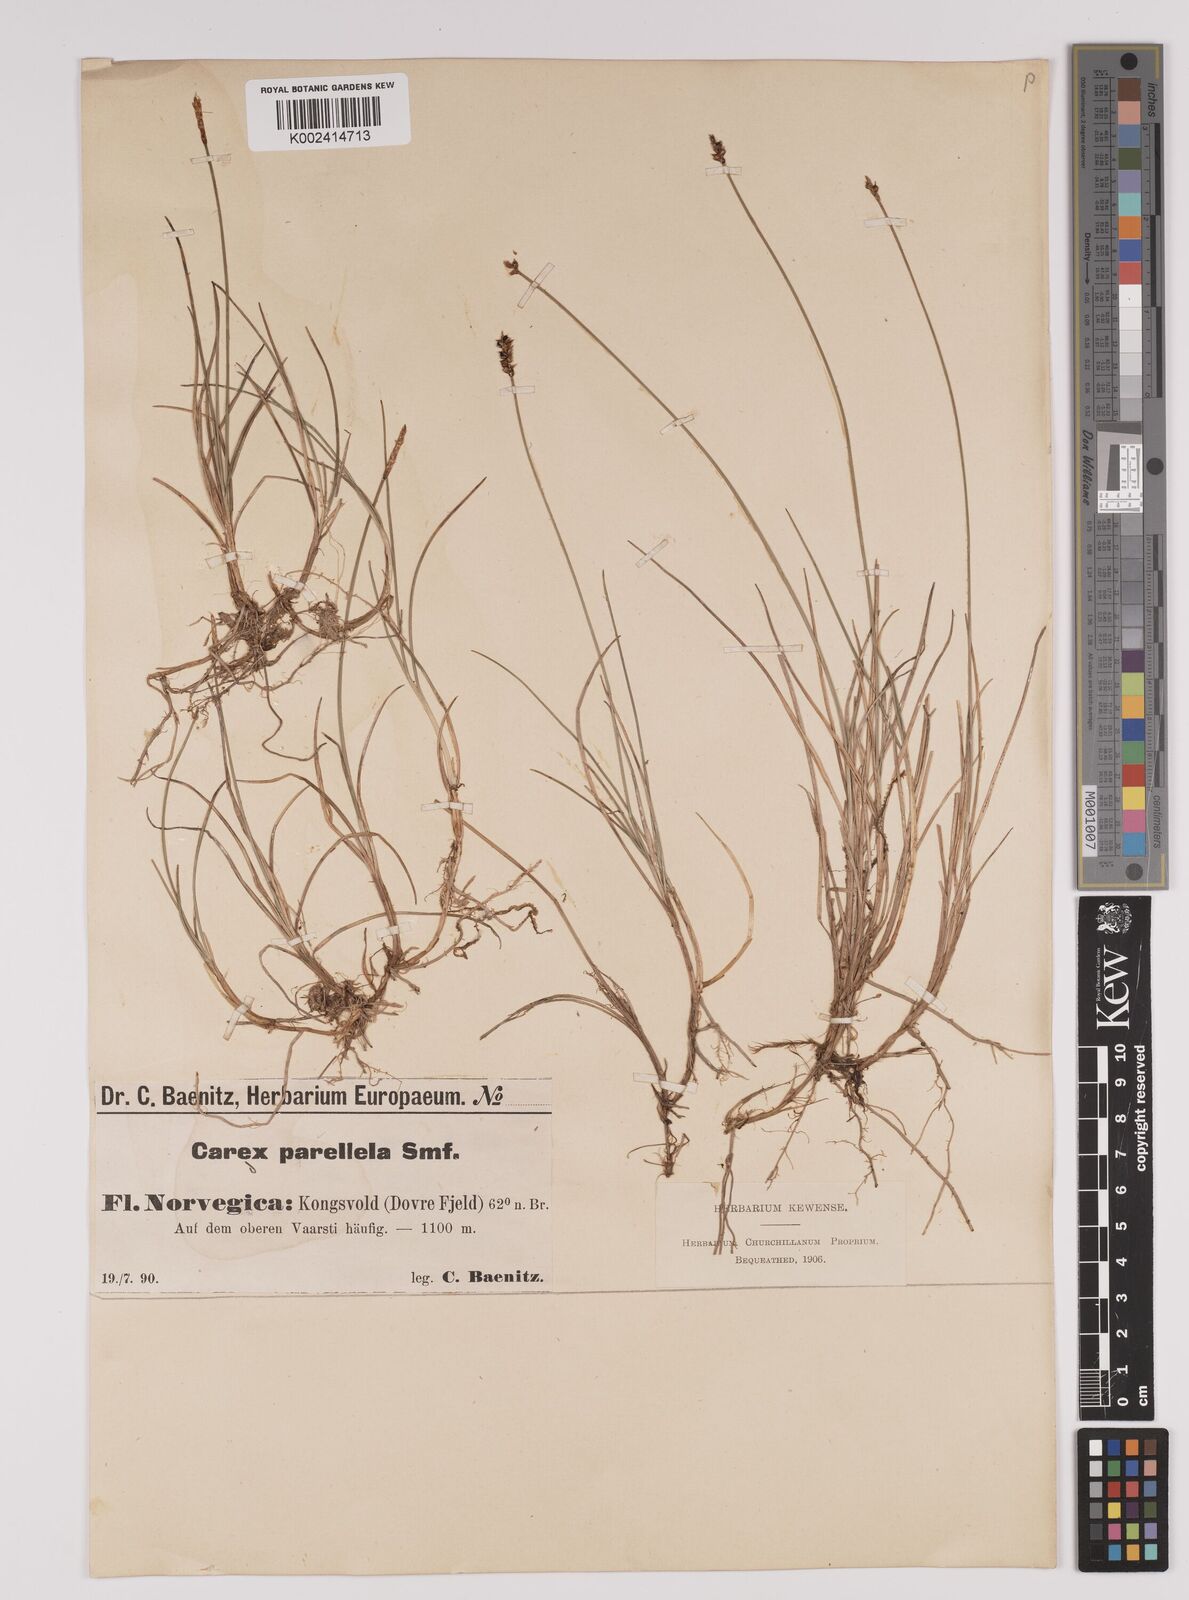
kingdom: Plantae
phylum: Tracheophyta
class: Liliopsida
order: Poales
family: Cyperaceae
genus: Carex
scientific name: Carex parallela
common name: Parallel sedge
